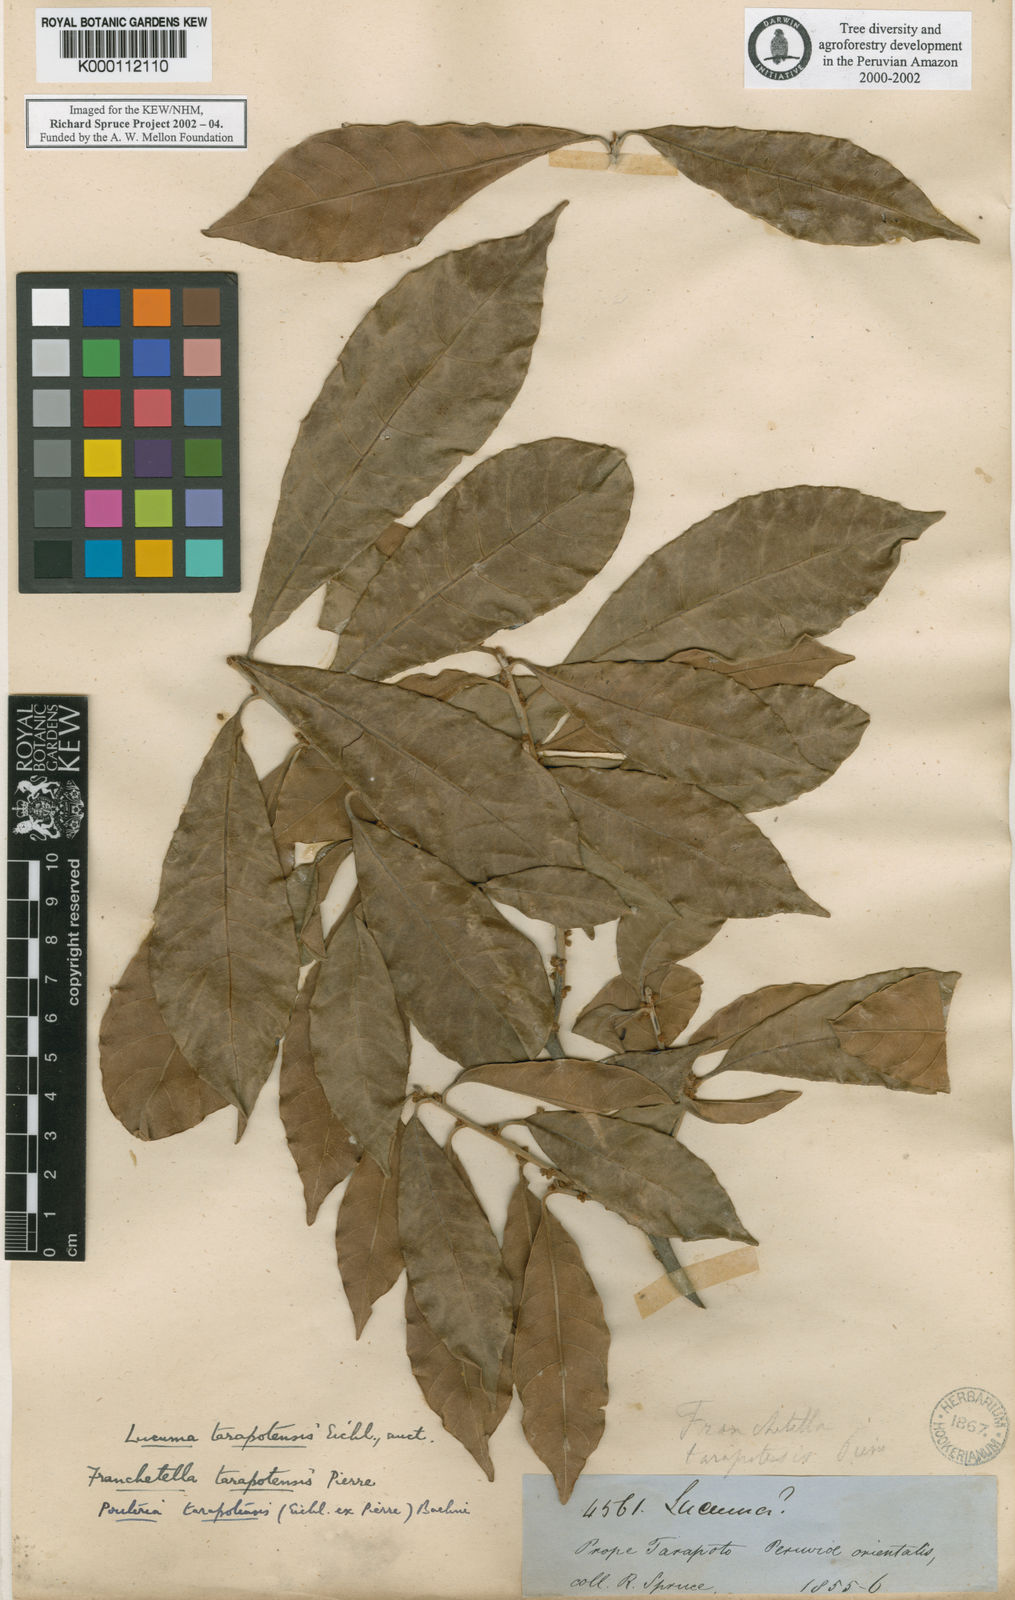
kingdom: Plantae
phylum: Tracheophyta
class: Magnoliopsida
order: Ericales
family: Sapotaceae
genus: Pouteria
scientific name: Pouteria tarapotensis
